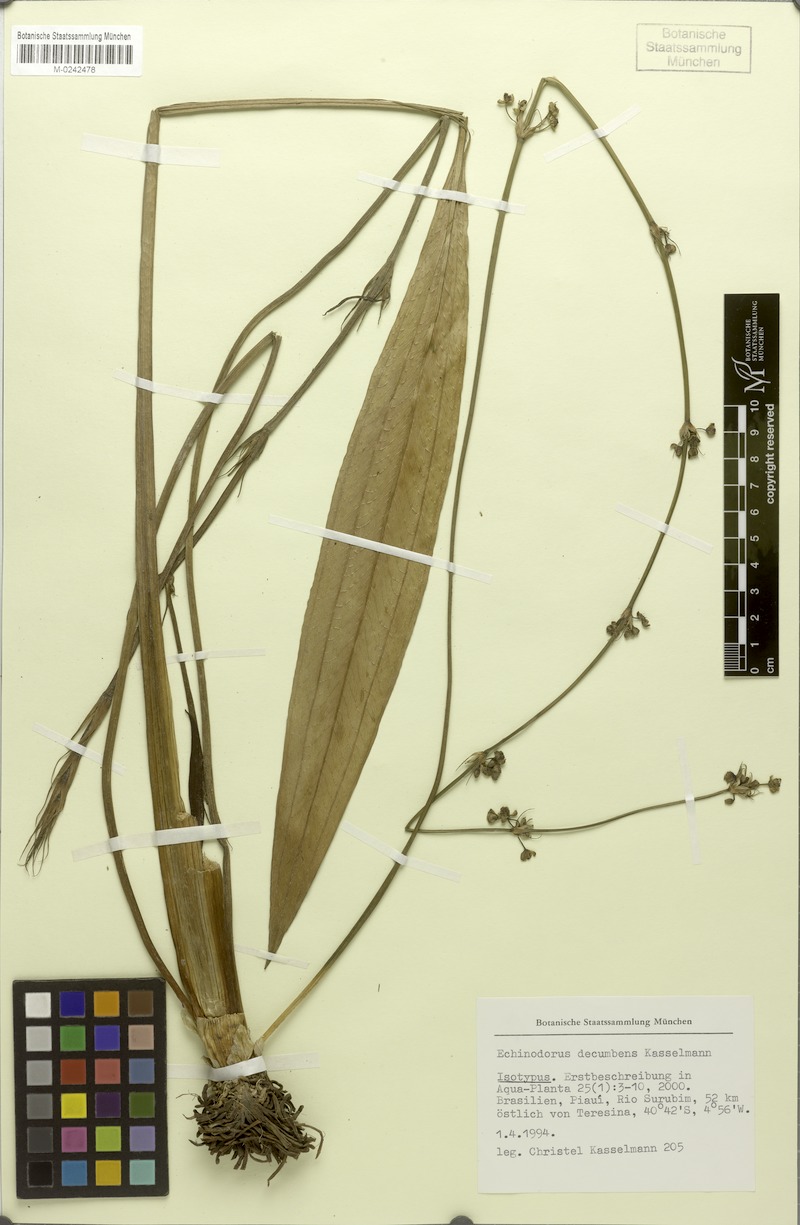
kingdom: Plantae
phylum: Tracheophyta
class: Liliopsida
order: Alismatales
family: Alismataceae
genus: Aquarius
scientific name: Aquarius decumbens
